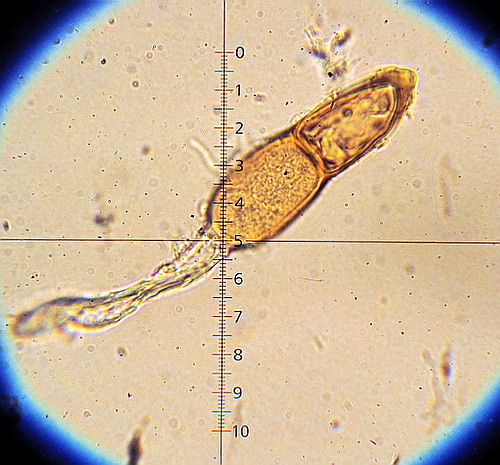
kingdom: Fungi
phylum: Basidiomycota
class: Pucciniomycetes
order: Pucciniales
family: Pucciniaceae
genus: Puccinia
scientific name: Puccinia malvacearum
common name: stokrose-tvecellerust
